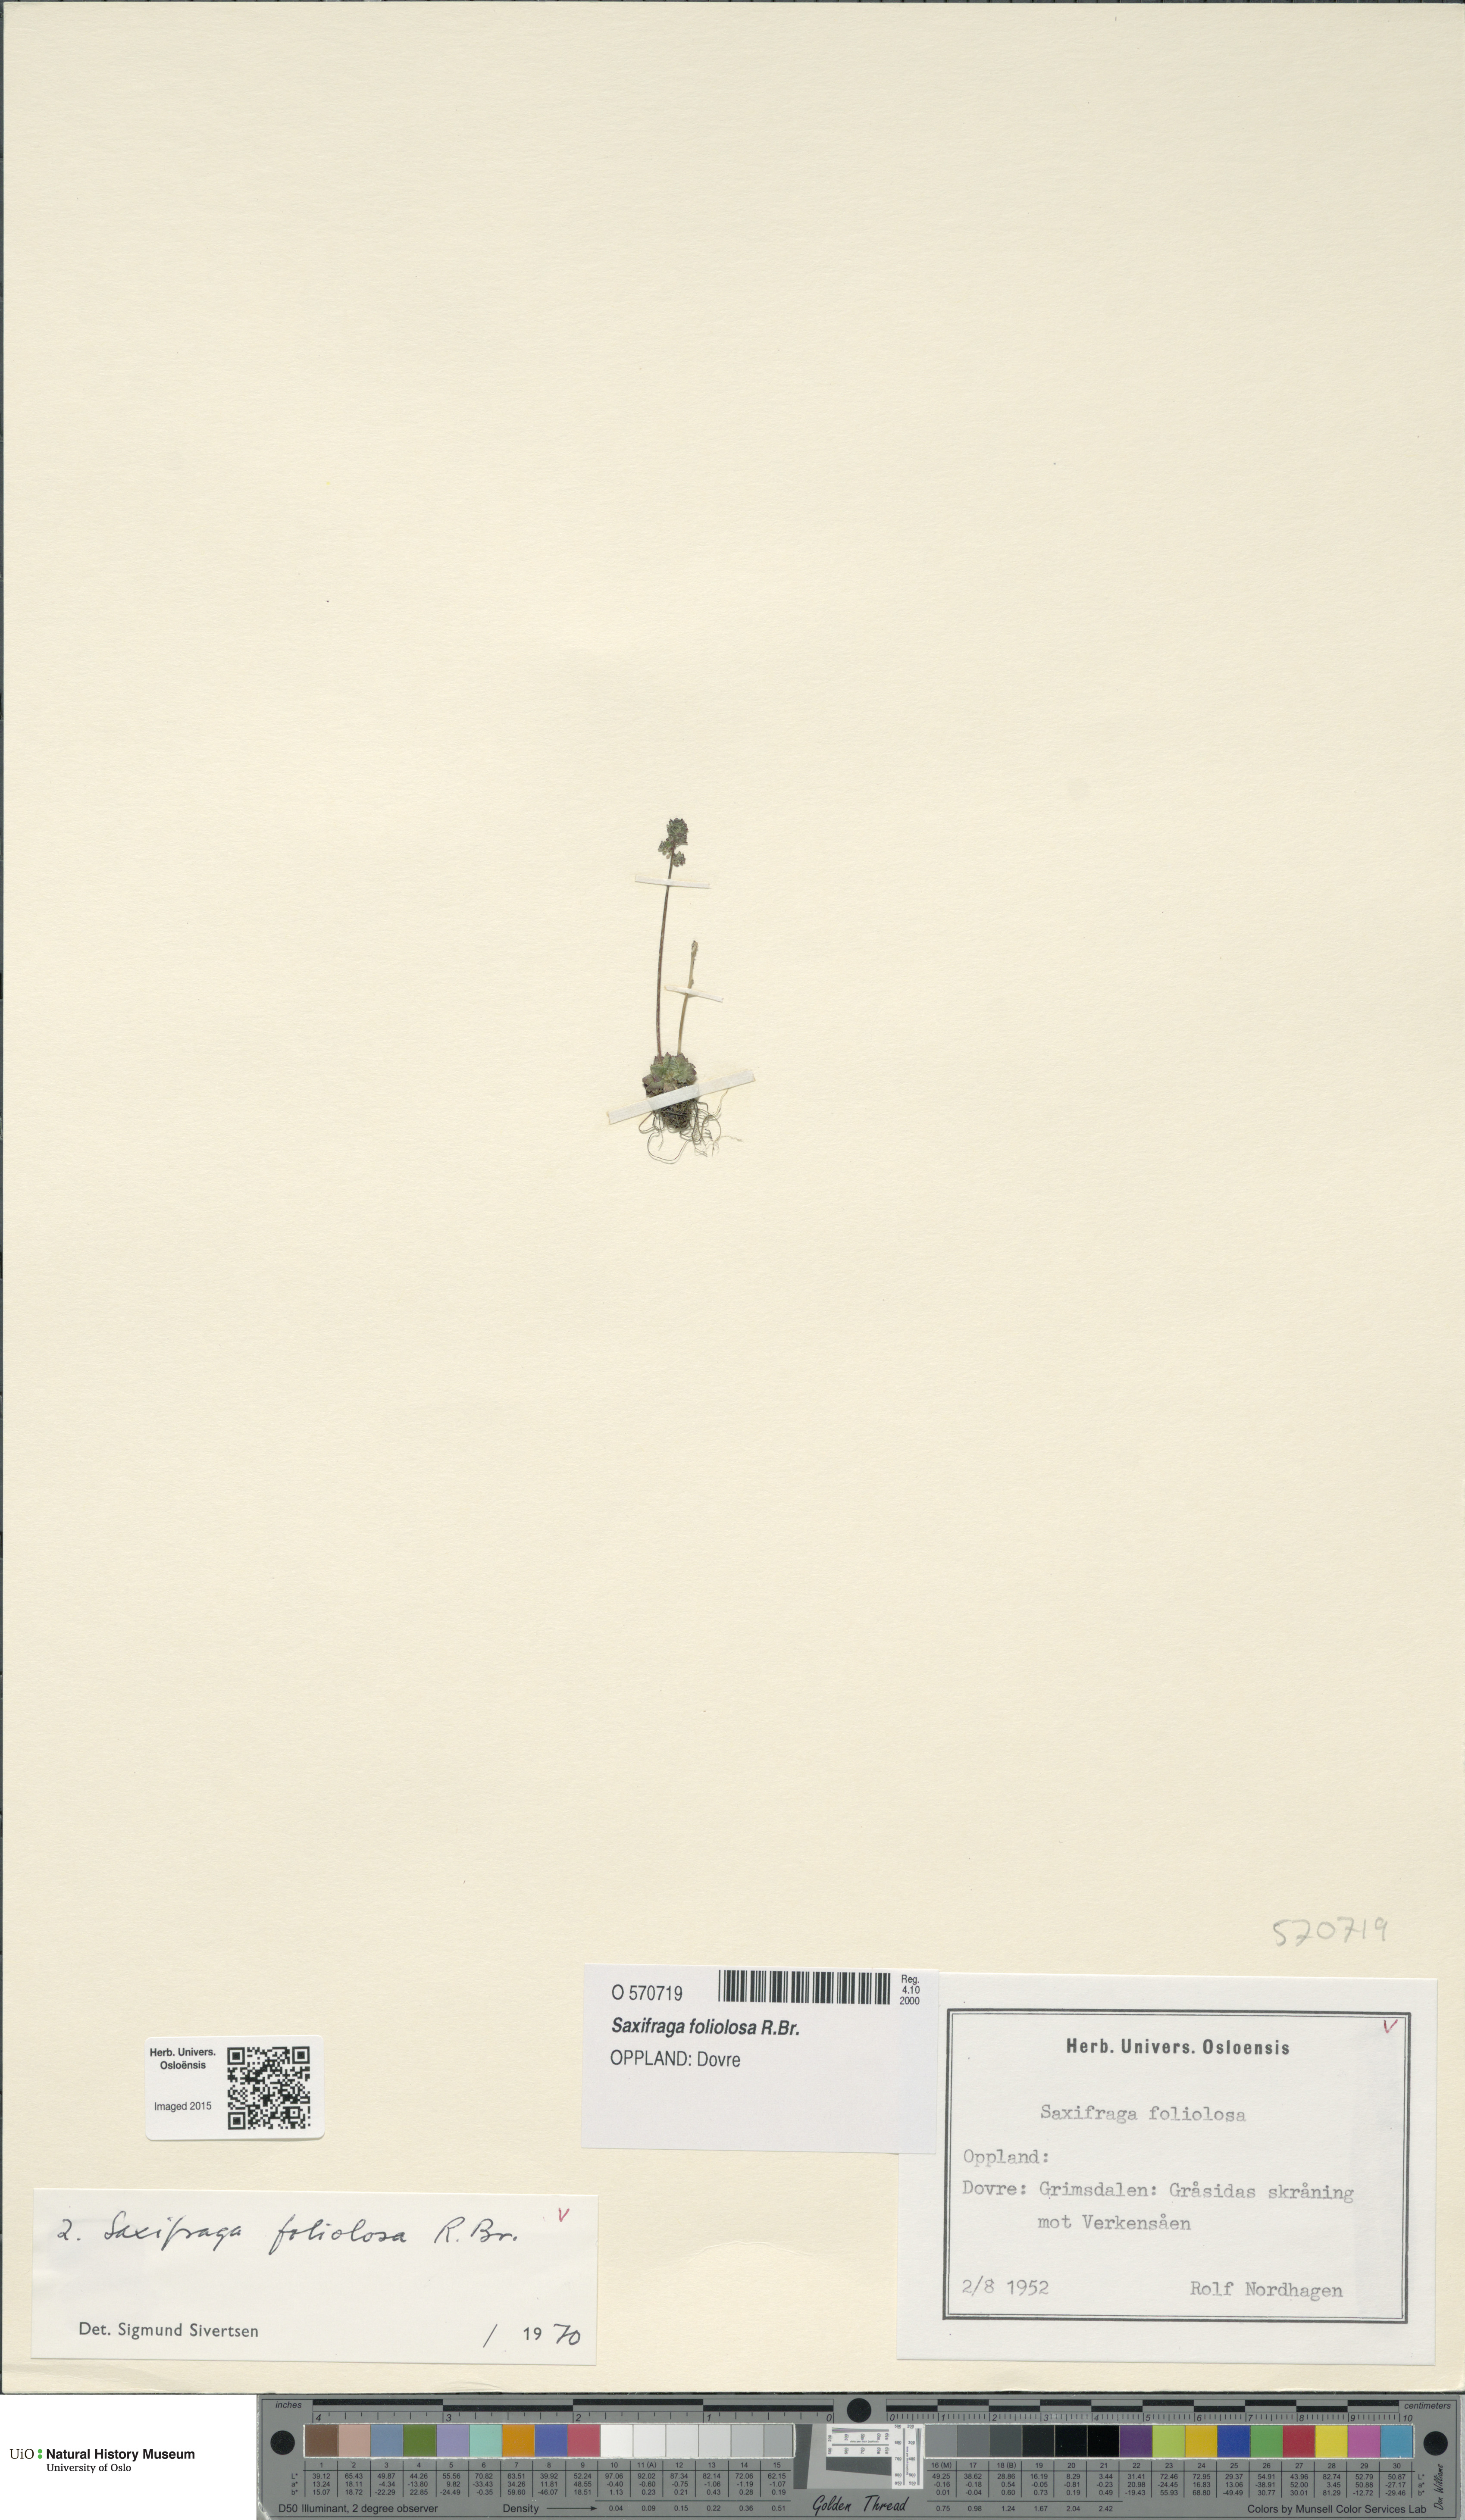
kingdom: Plantae
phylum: Tracheophyta
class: Magnoliopsida
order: Saxifragales
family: Saxifragaceae
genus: Micranthes
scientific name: Micranthes foliolosa
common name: Leafystem saxifrage
